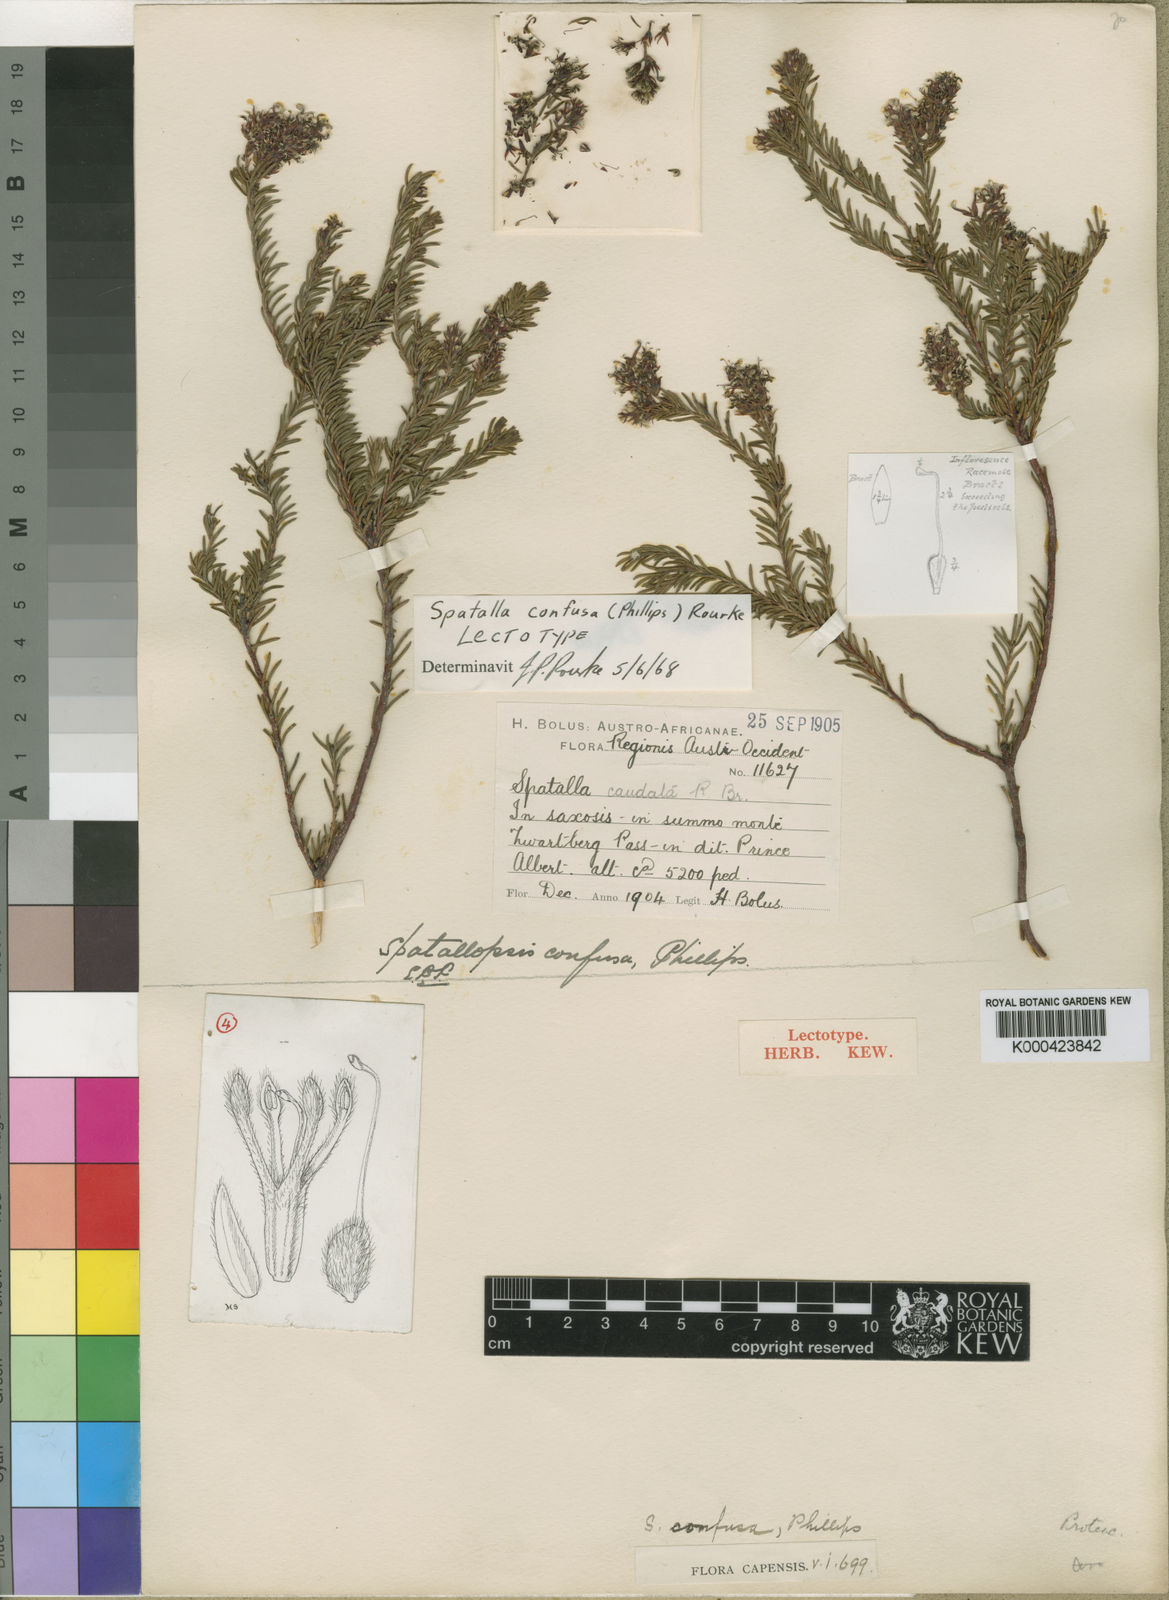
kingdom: Plantae
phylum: Tracheophyta
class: Magnoliopsida
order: Proteales
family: Proteaceae
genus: Spatalla
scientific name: Spatalla confusa
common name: Long-tube spoon
